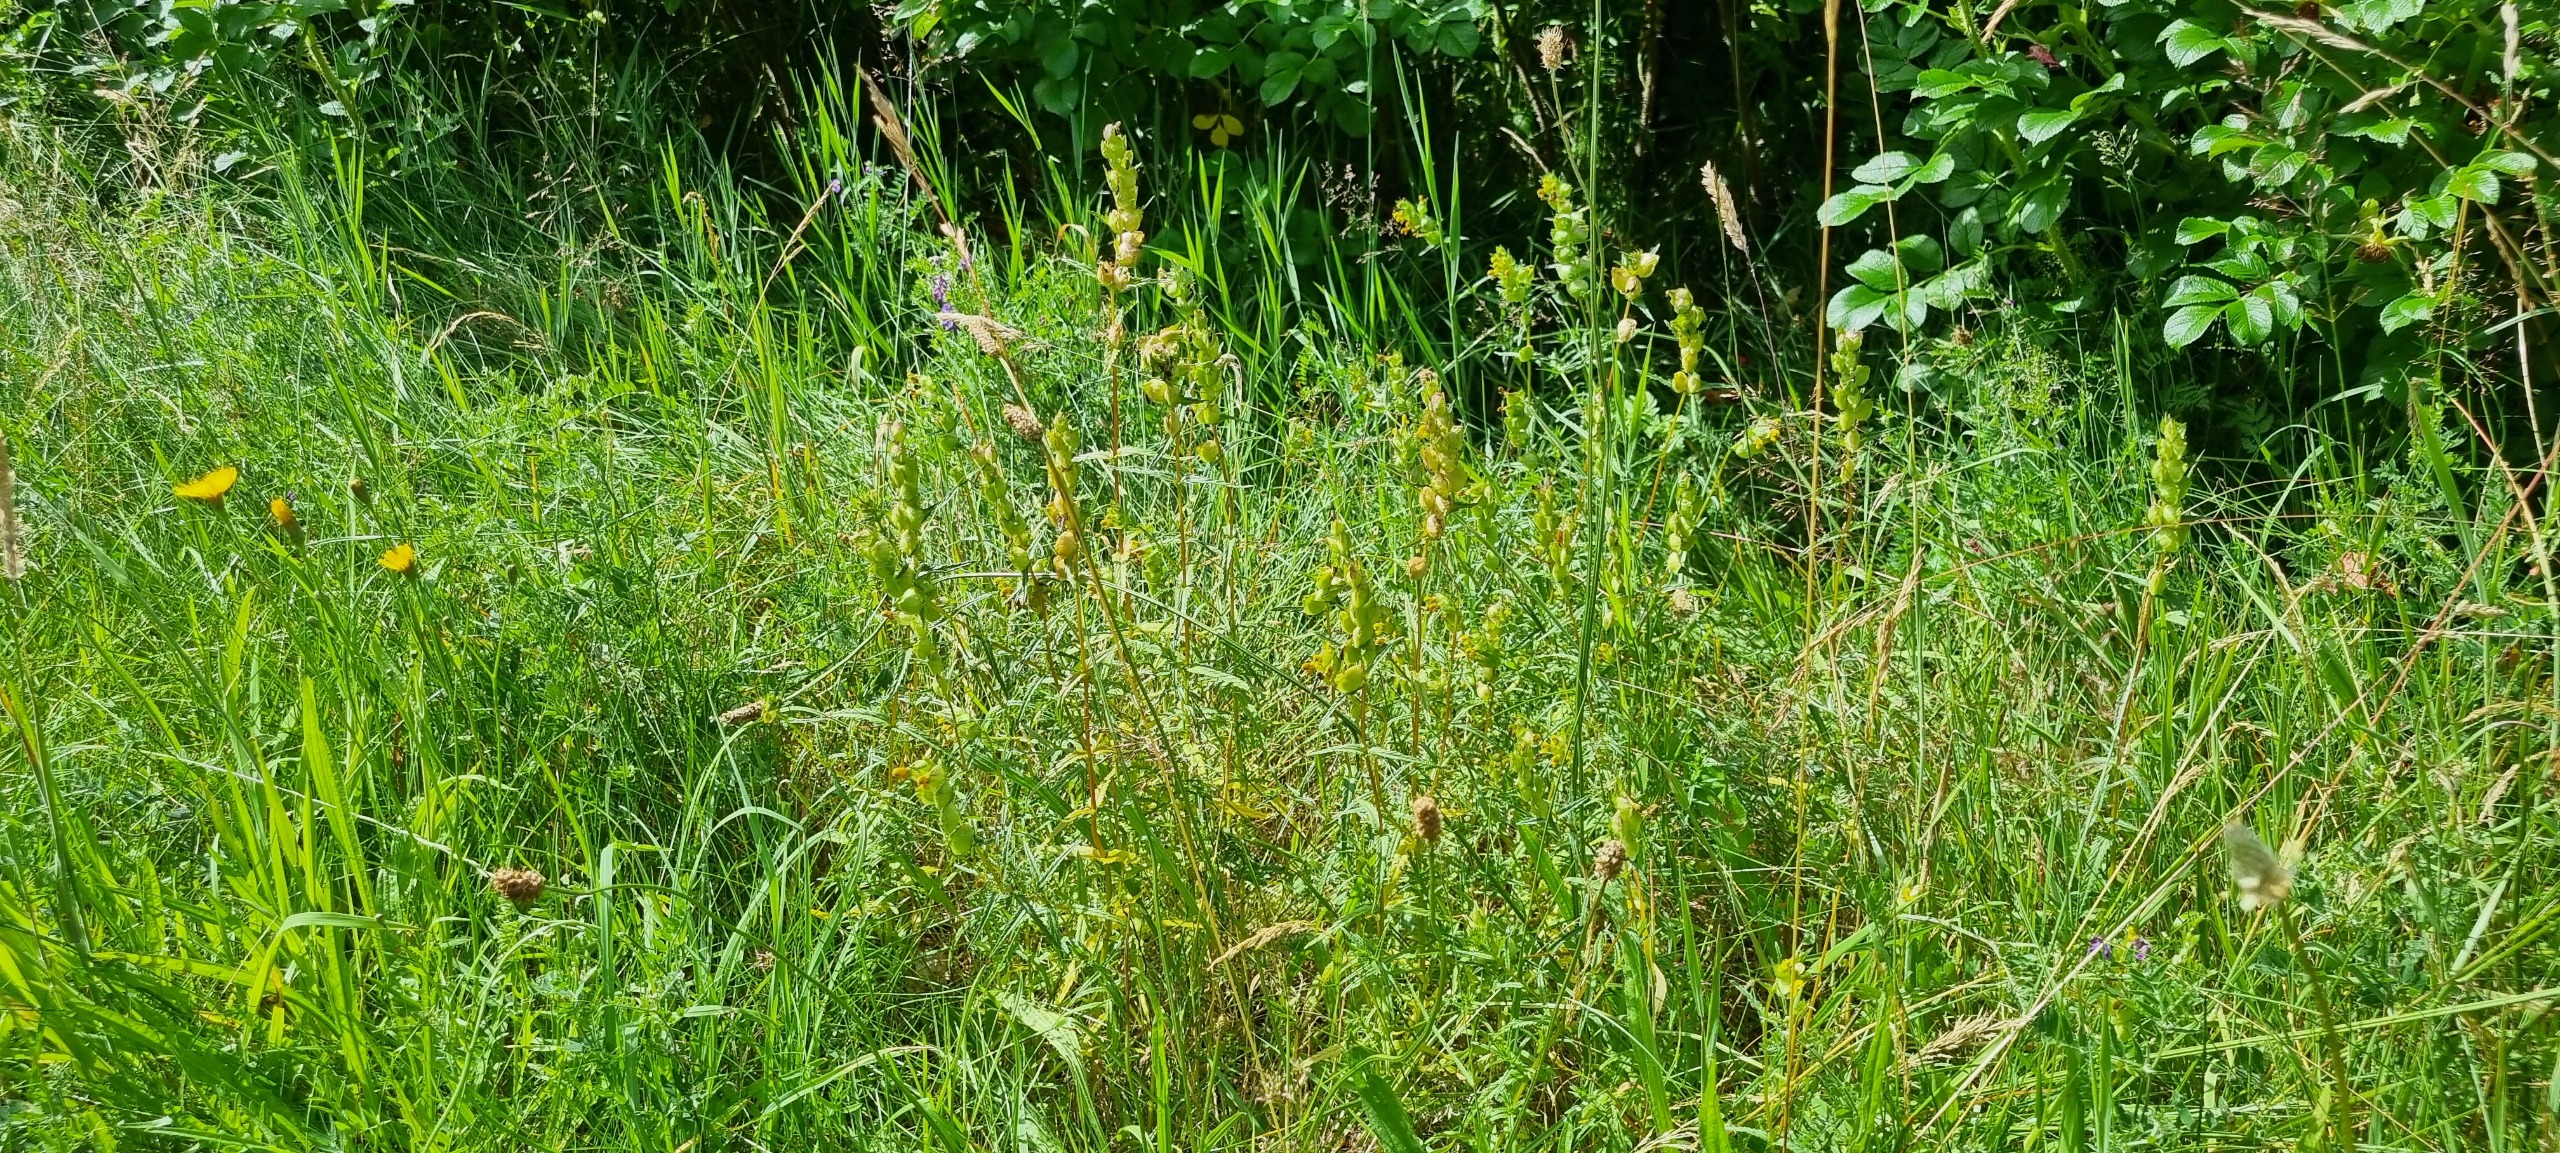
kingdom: Plantae
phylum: Tracheophyta
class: Magnoliopsida
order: Lamiales
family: Orobanchaceae
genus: Rhinanthus
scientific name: Rhinanthus minor
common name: Liden skjaller
